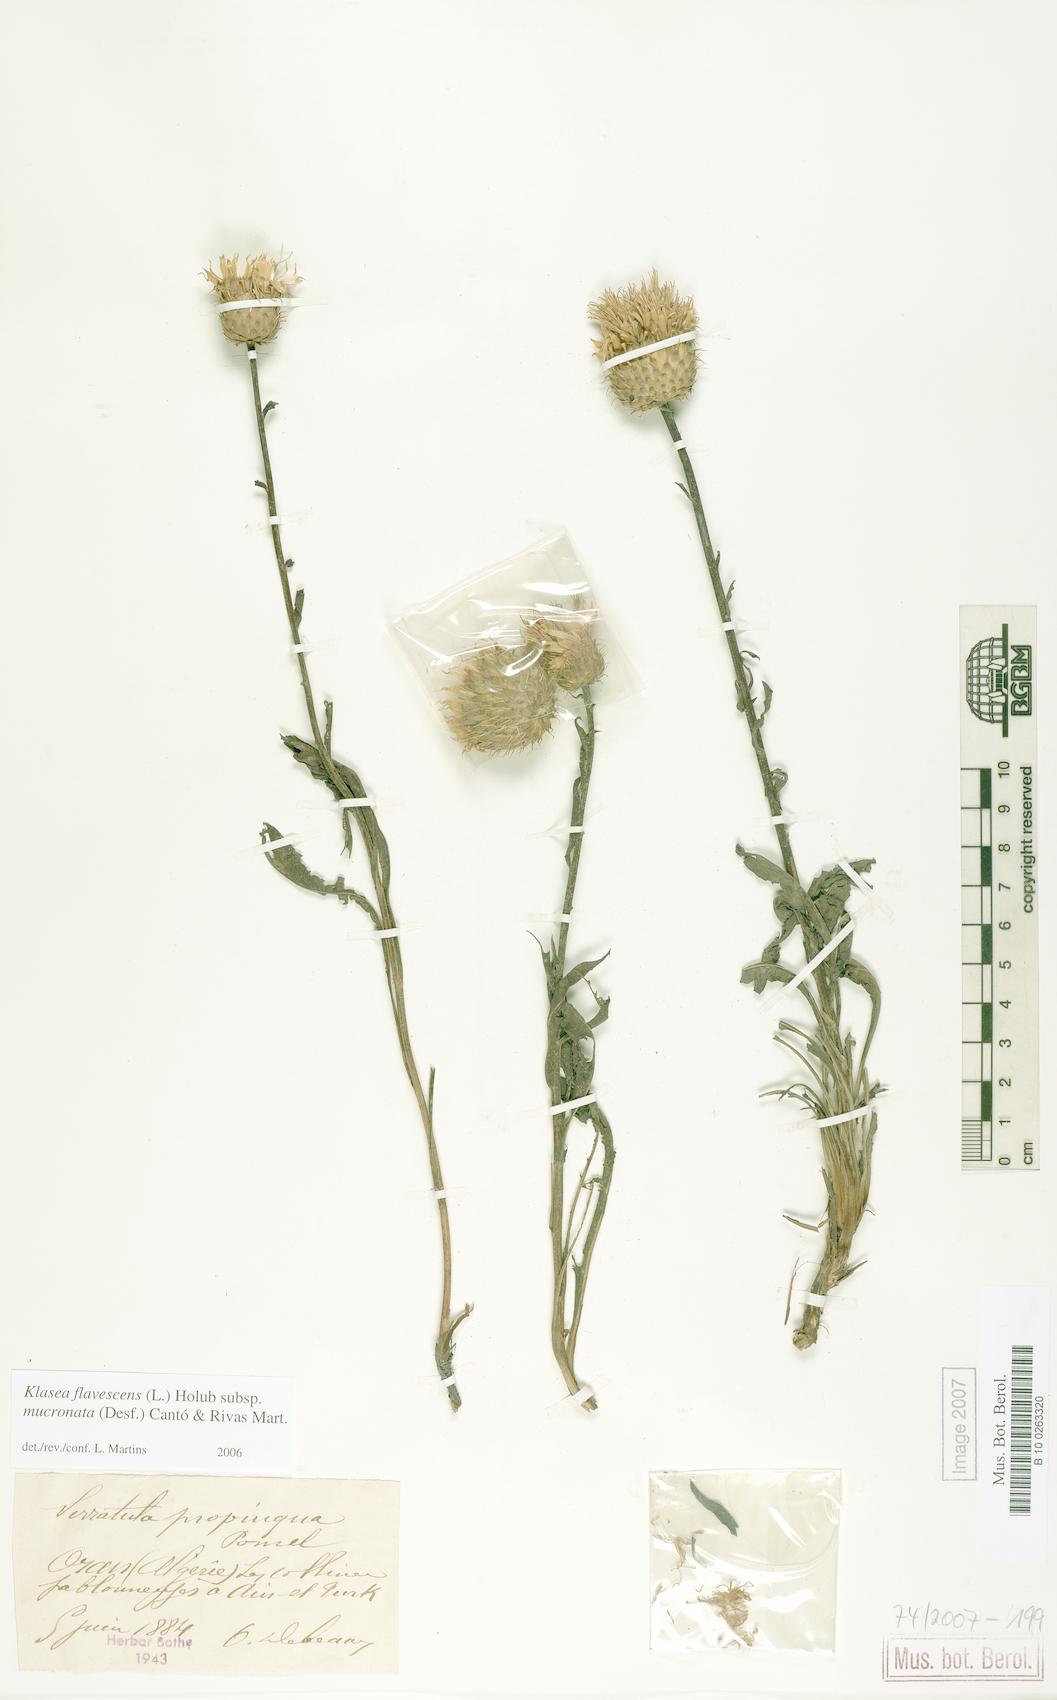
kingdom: Plantae
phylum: Tracheophyta
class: Magnoliopsida
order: Asterales
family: Asteraceae
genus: Klasea
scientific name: Klasea flavescens
